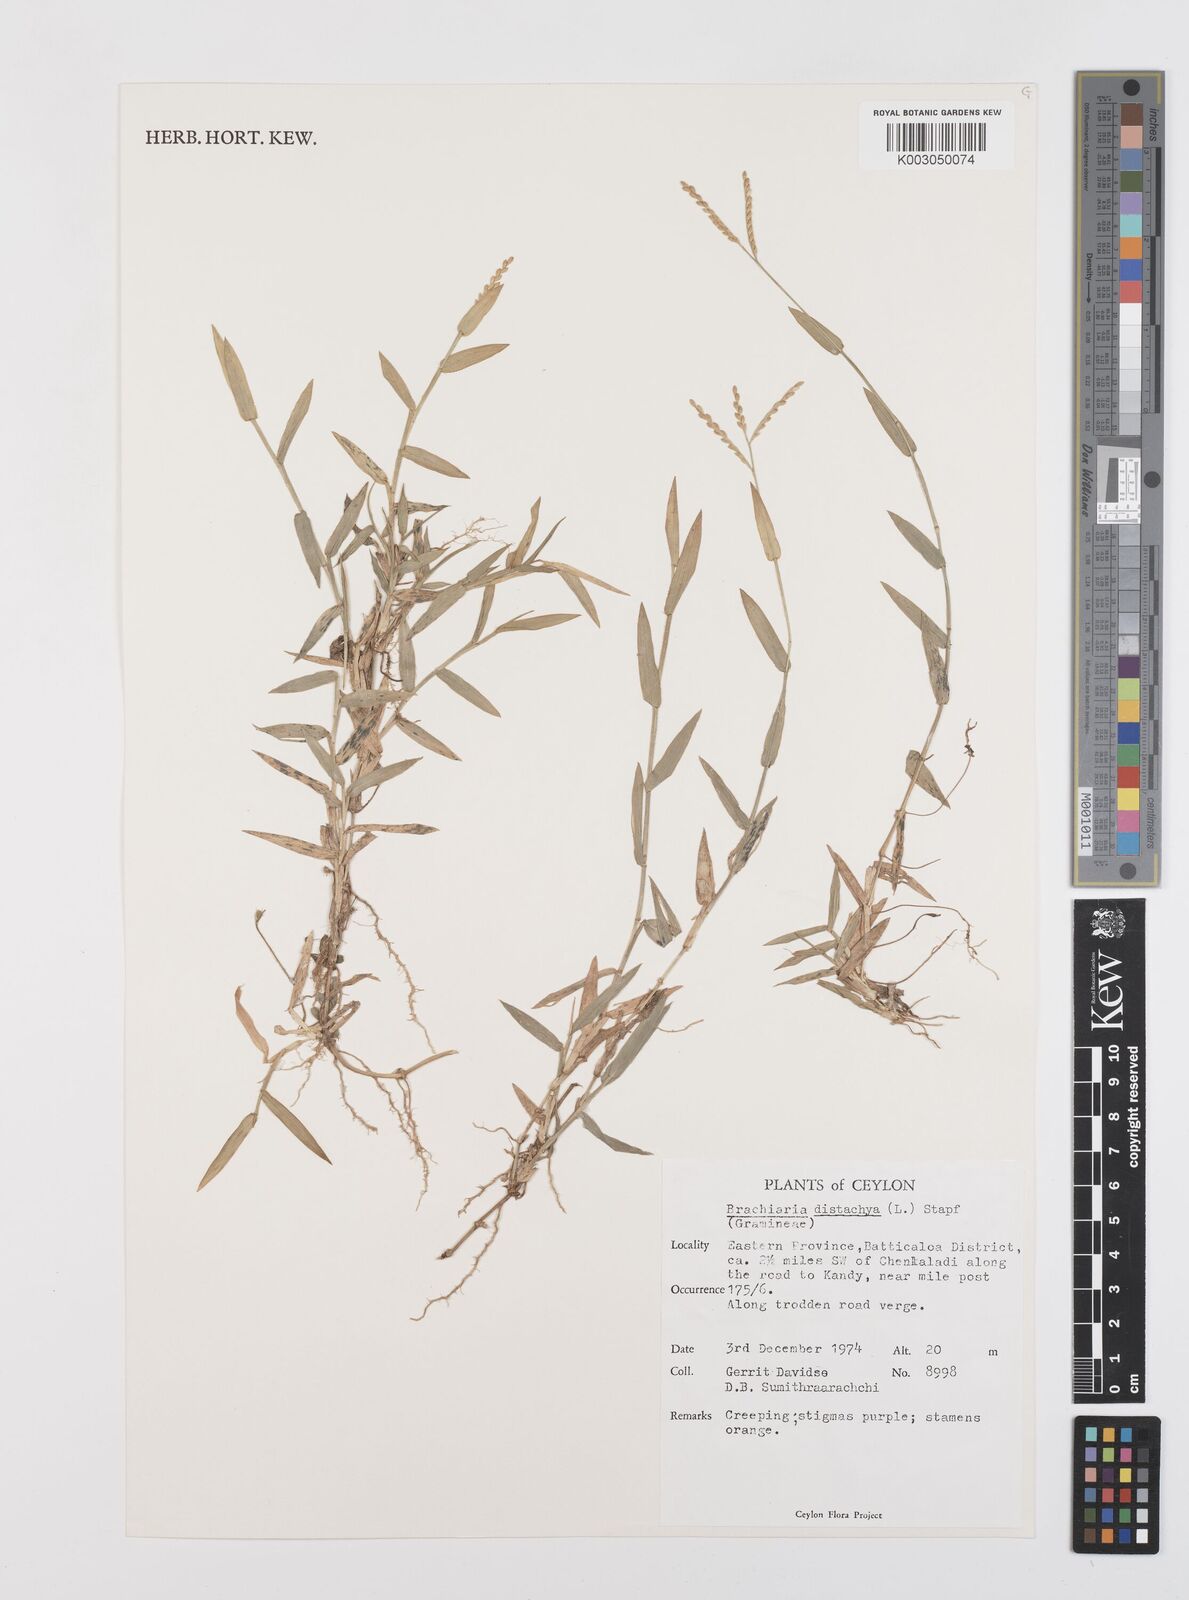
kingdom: Plantae
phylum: Tracheophyta
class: Liliopsida
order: Poales
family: Poaceae
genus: Urochloa
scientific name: Urochloa distachyos
